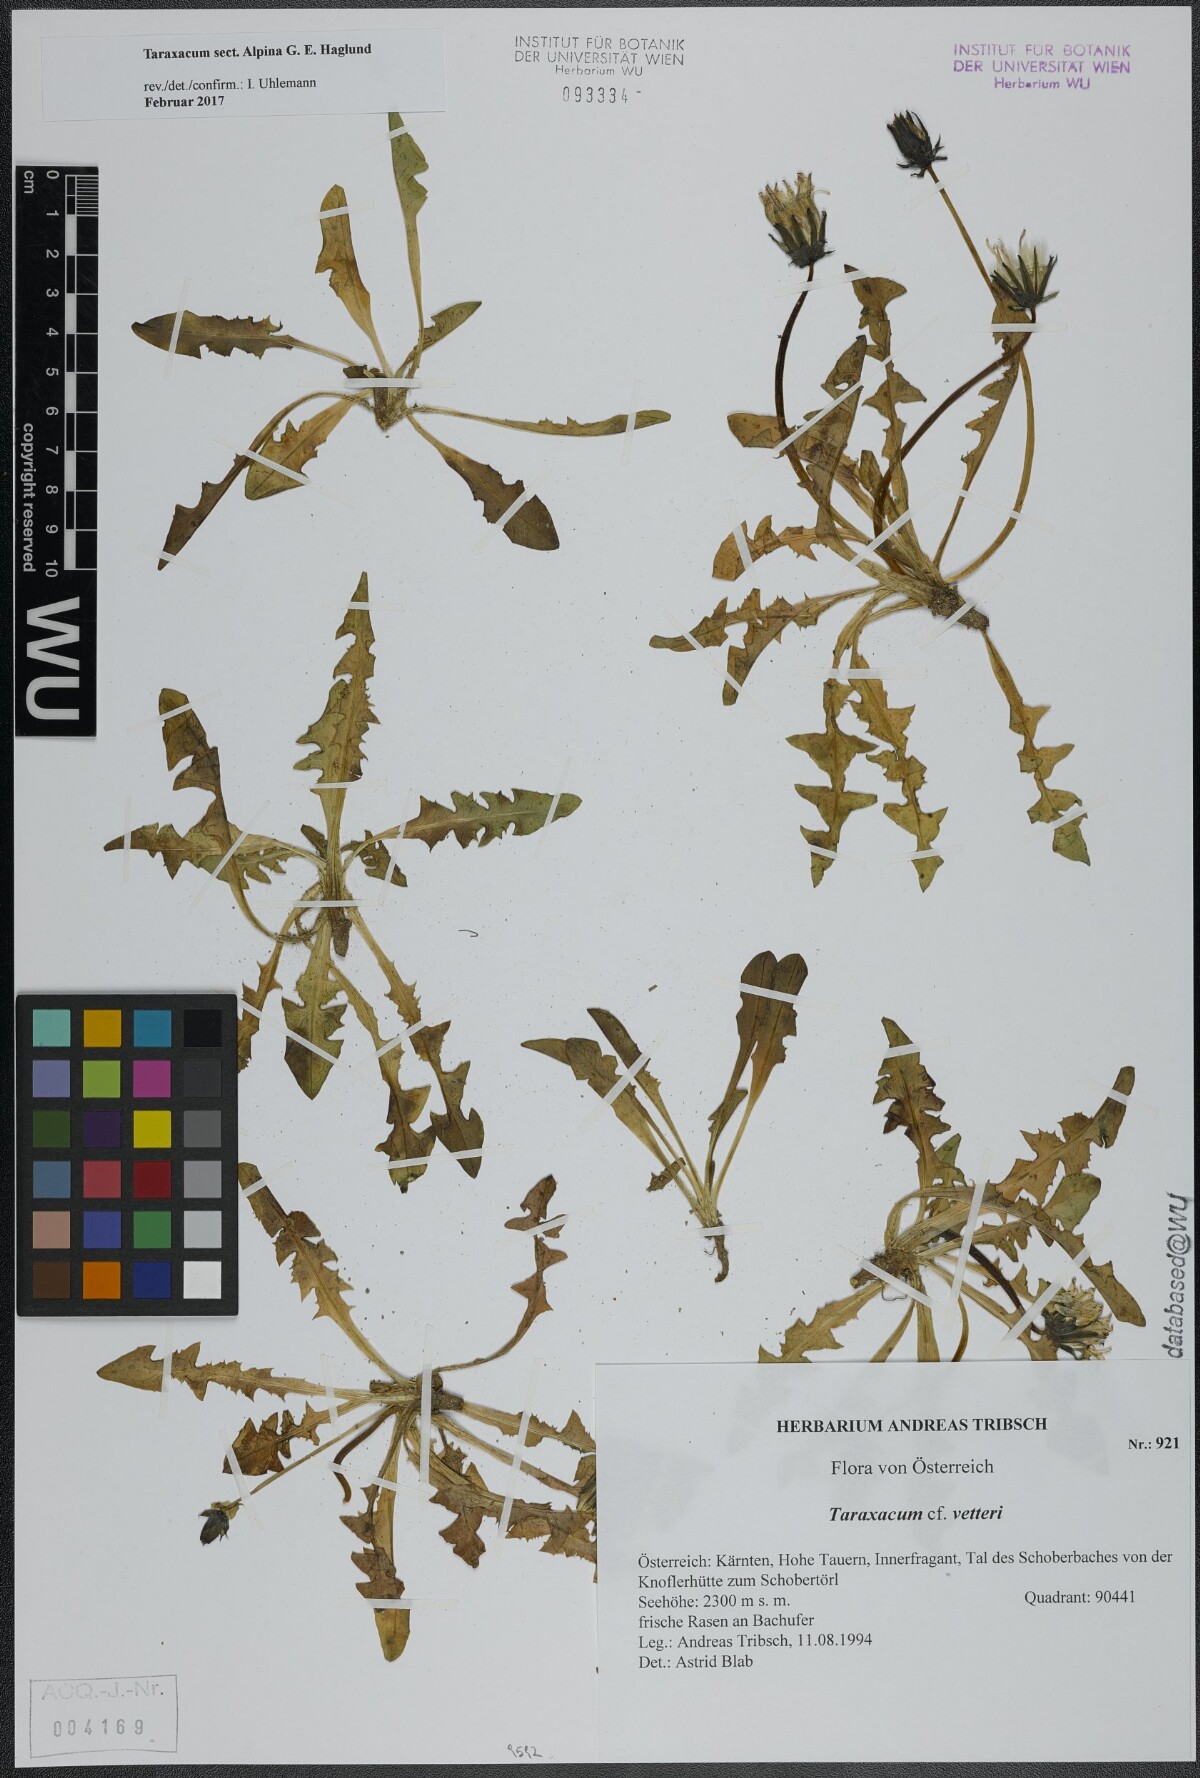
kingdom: Plantae
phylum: Tracheophyta
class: Magnoliopsida
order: Asterales
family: Asteraceae
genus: Taraxacum
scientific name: Taraxacum
